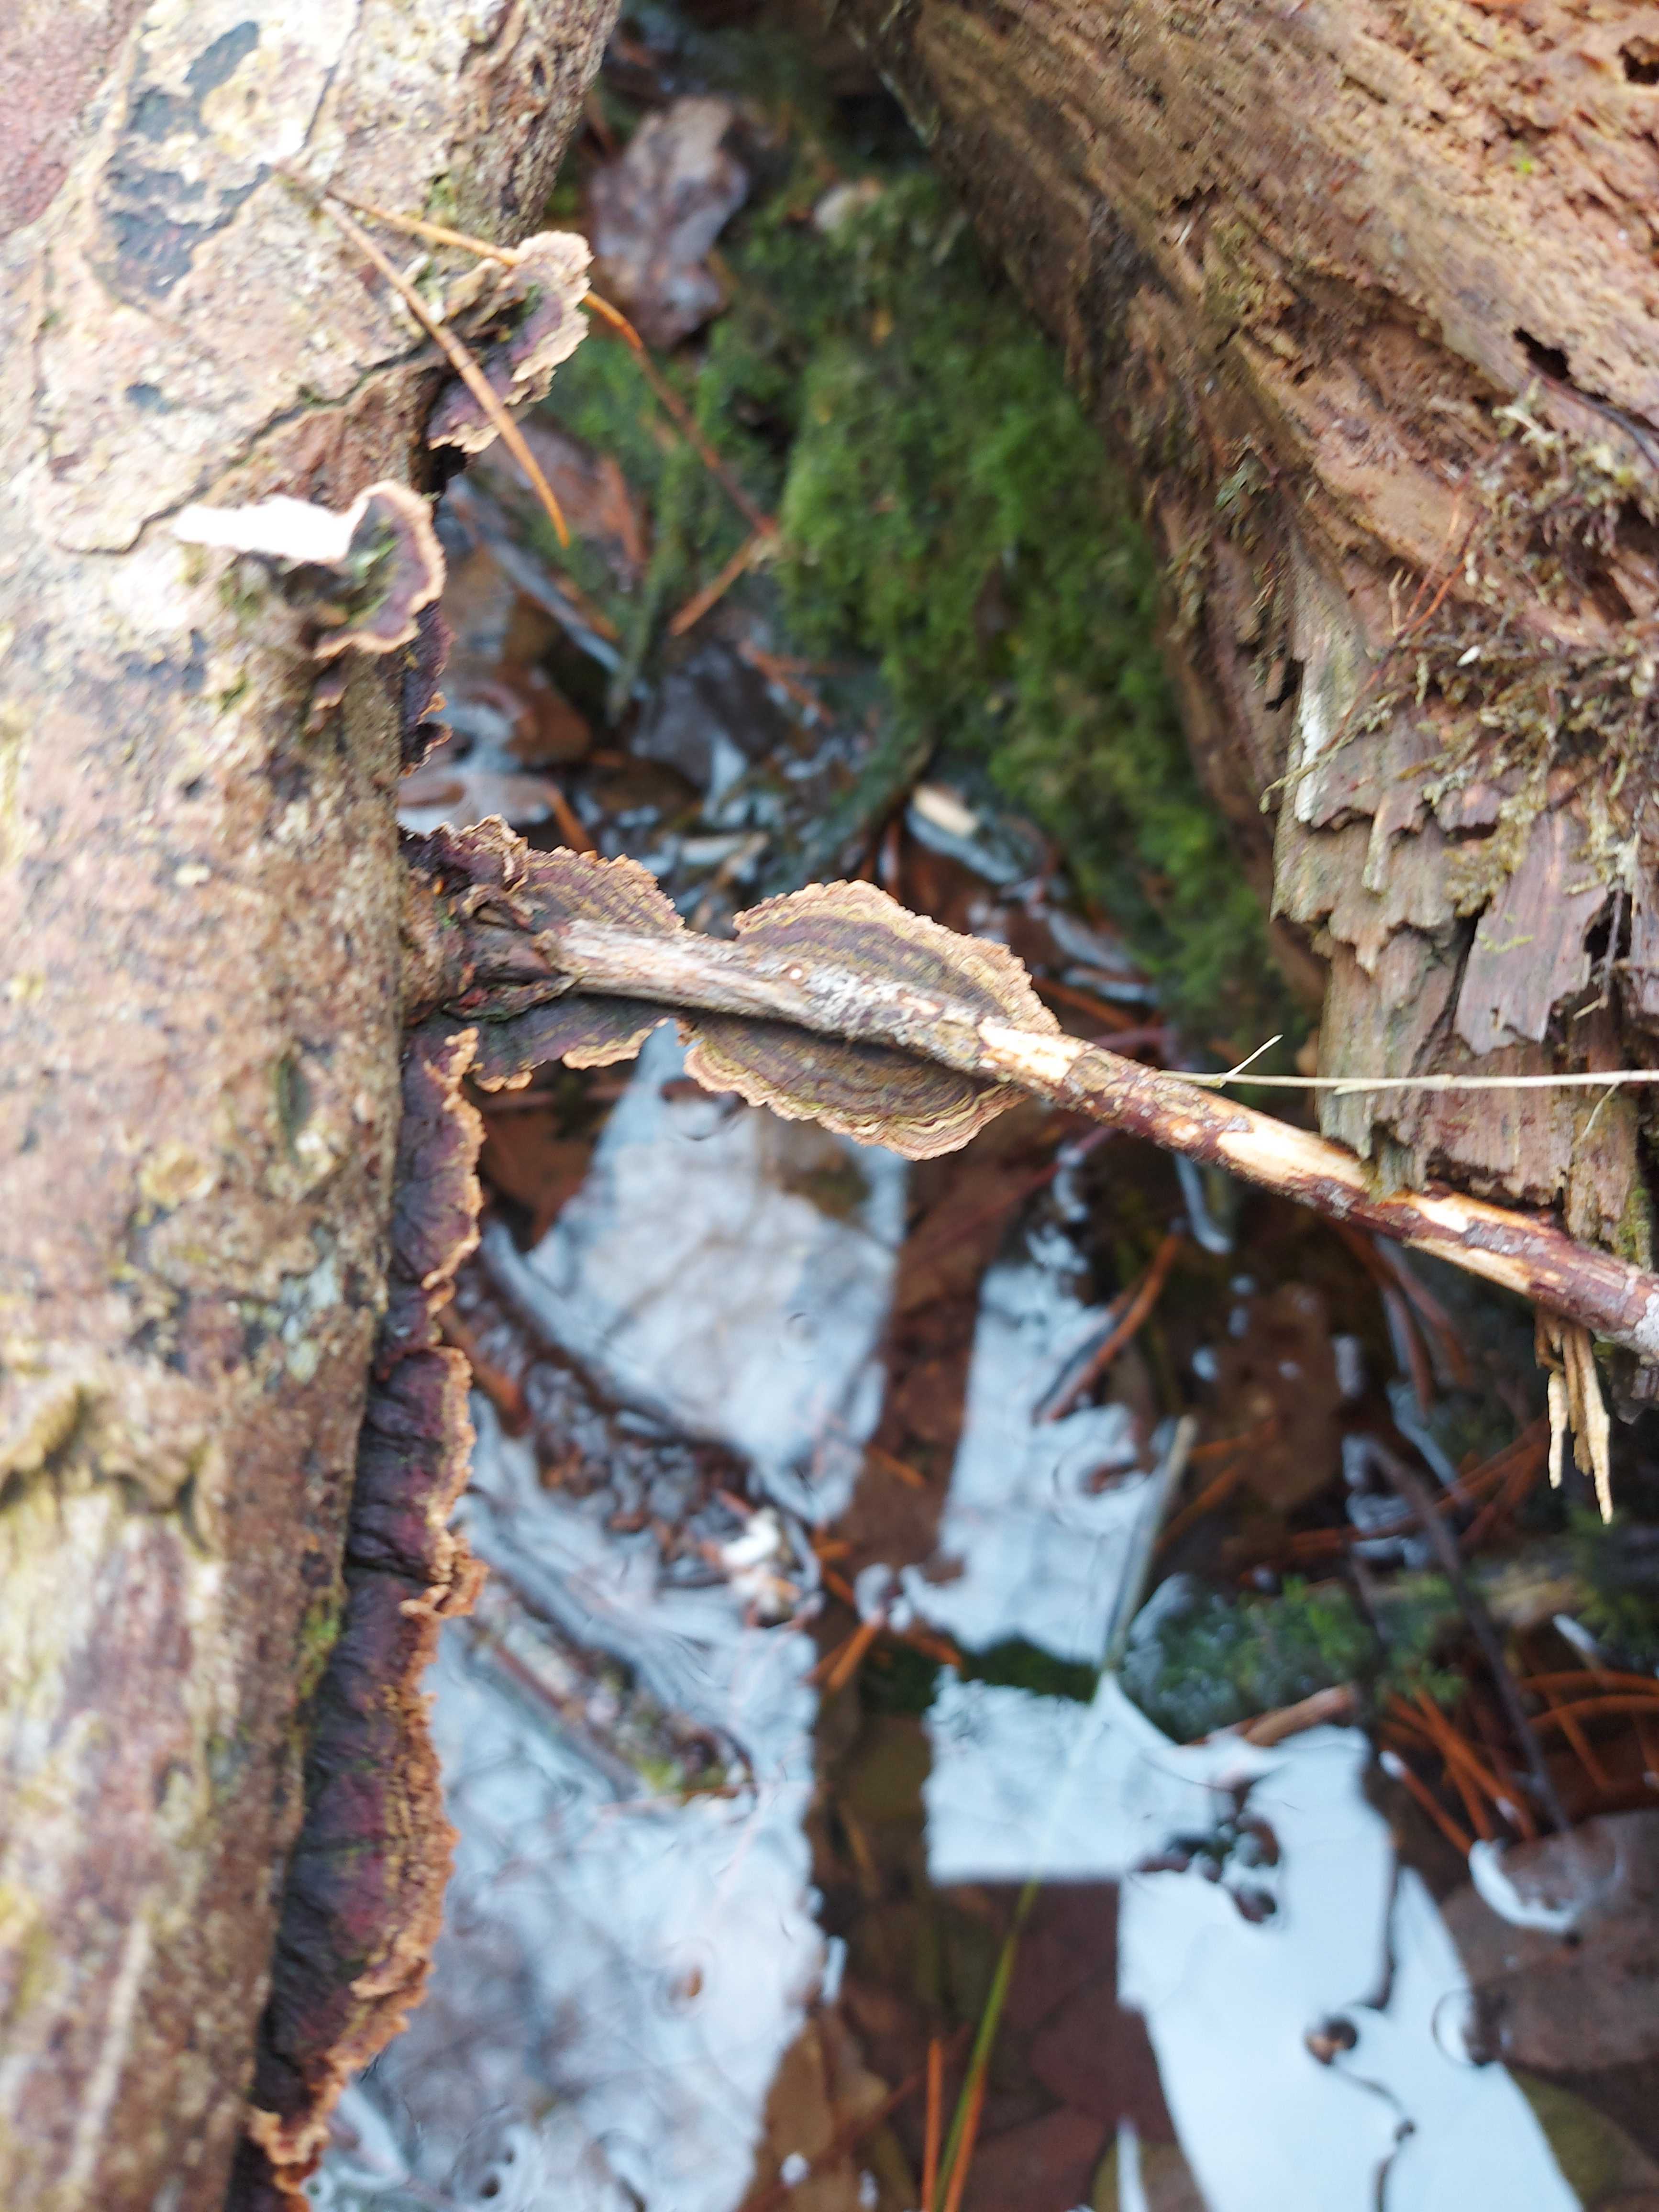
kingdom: Fungi
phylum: Basidiomycota
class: Agaricomycetes
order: Hymenochaetales
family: Hymenochaetaceae
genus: Hydnoporia
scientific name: Hydnoporia tabacina
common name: tobaksbrun ruslædersvamp
